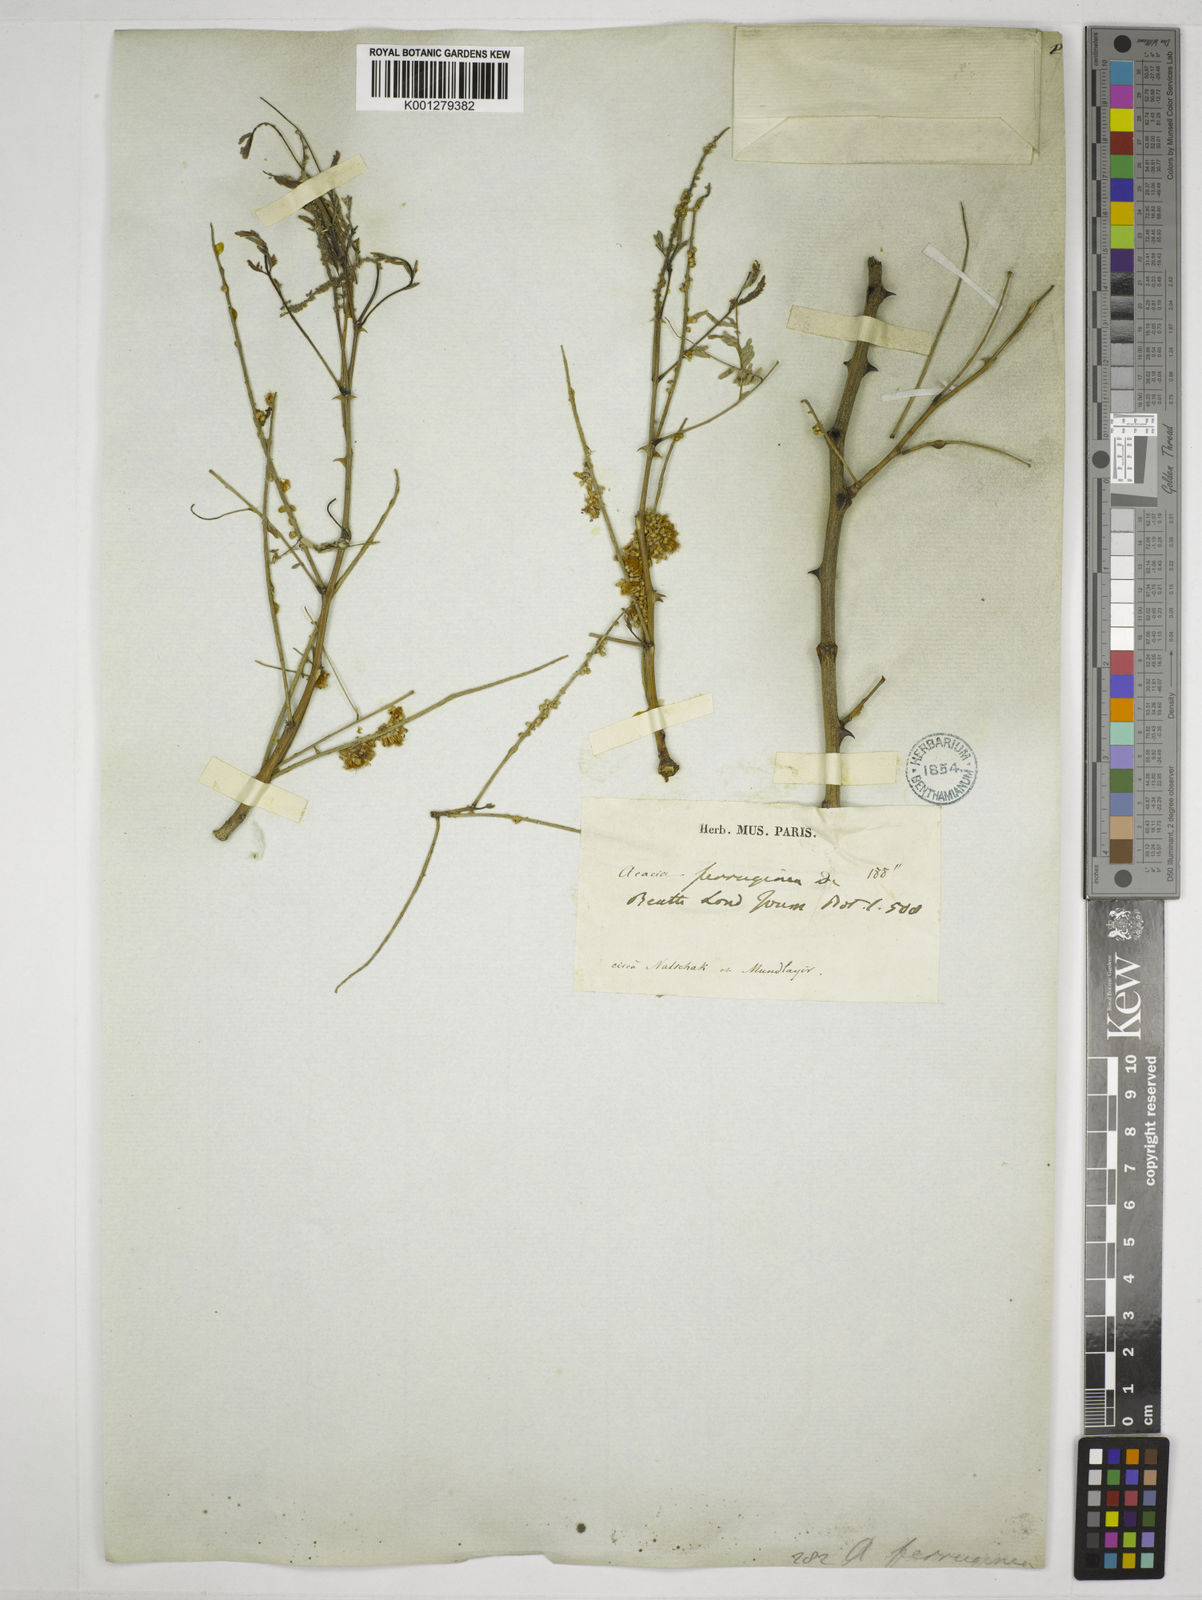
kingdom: Plantae
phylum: Tracheophyta
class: Magnoliopsida
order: Fabales
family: Fabaceae
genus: Senegalia
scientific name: Senegalia ferruginea
